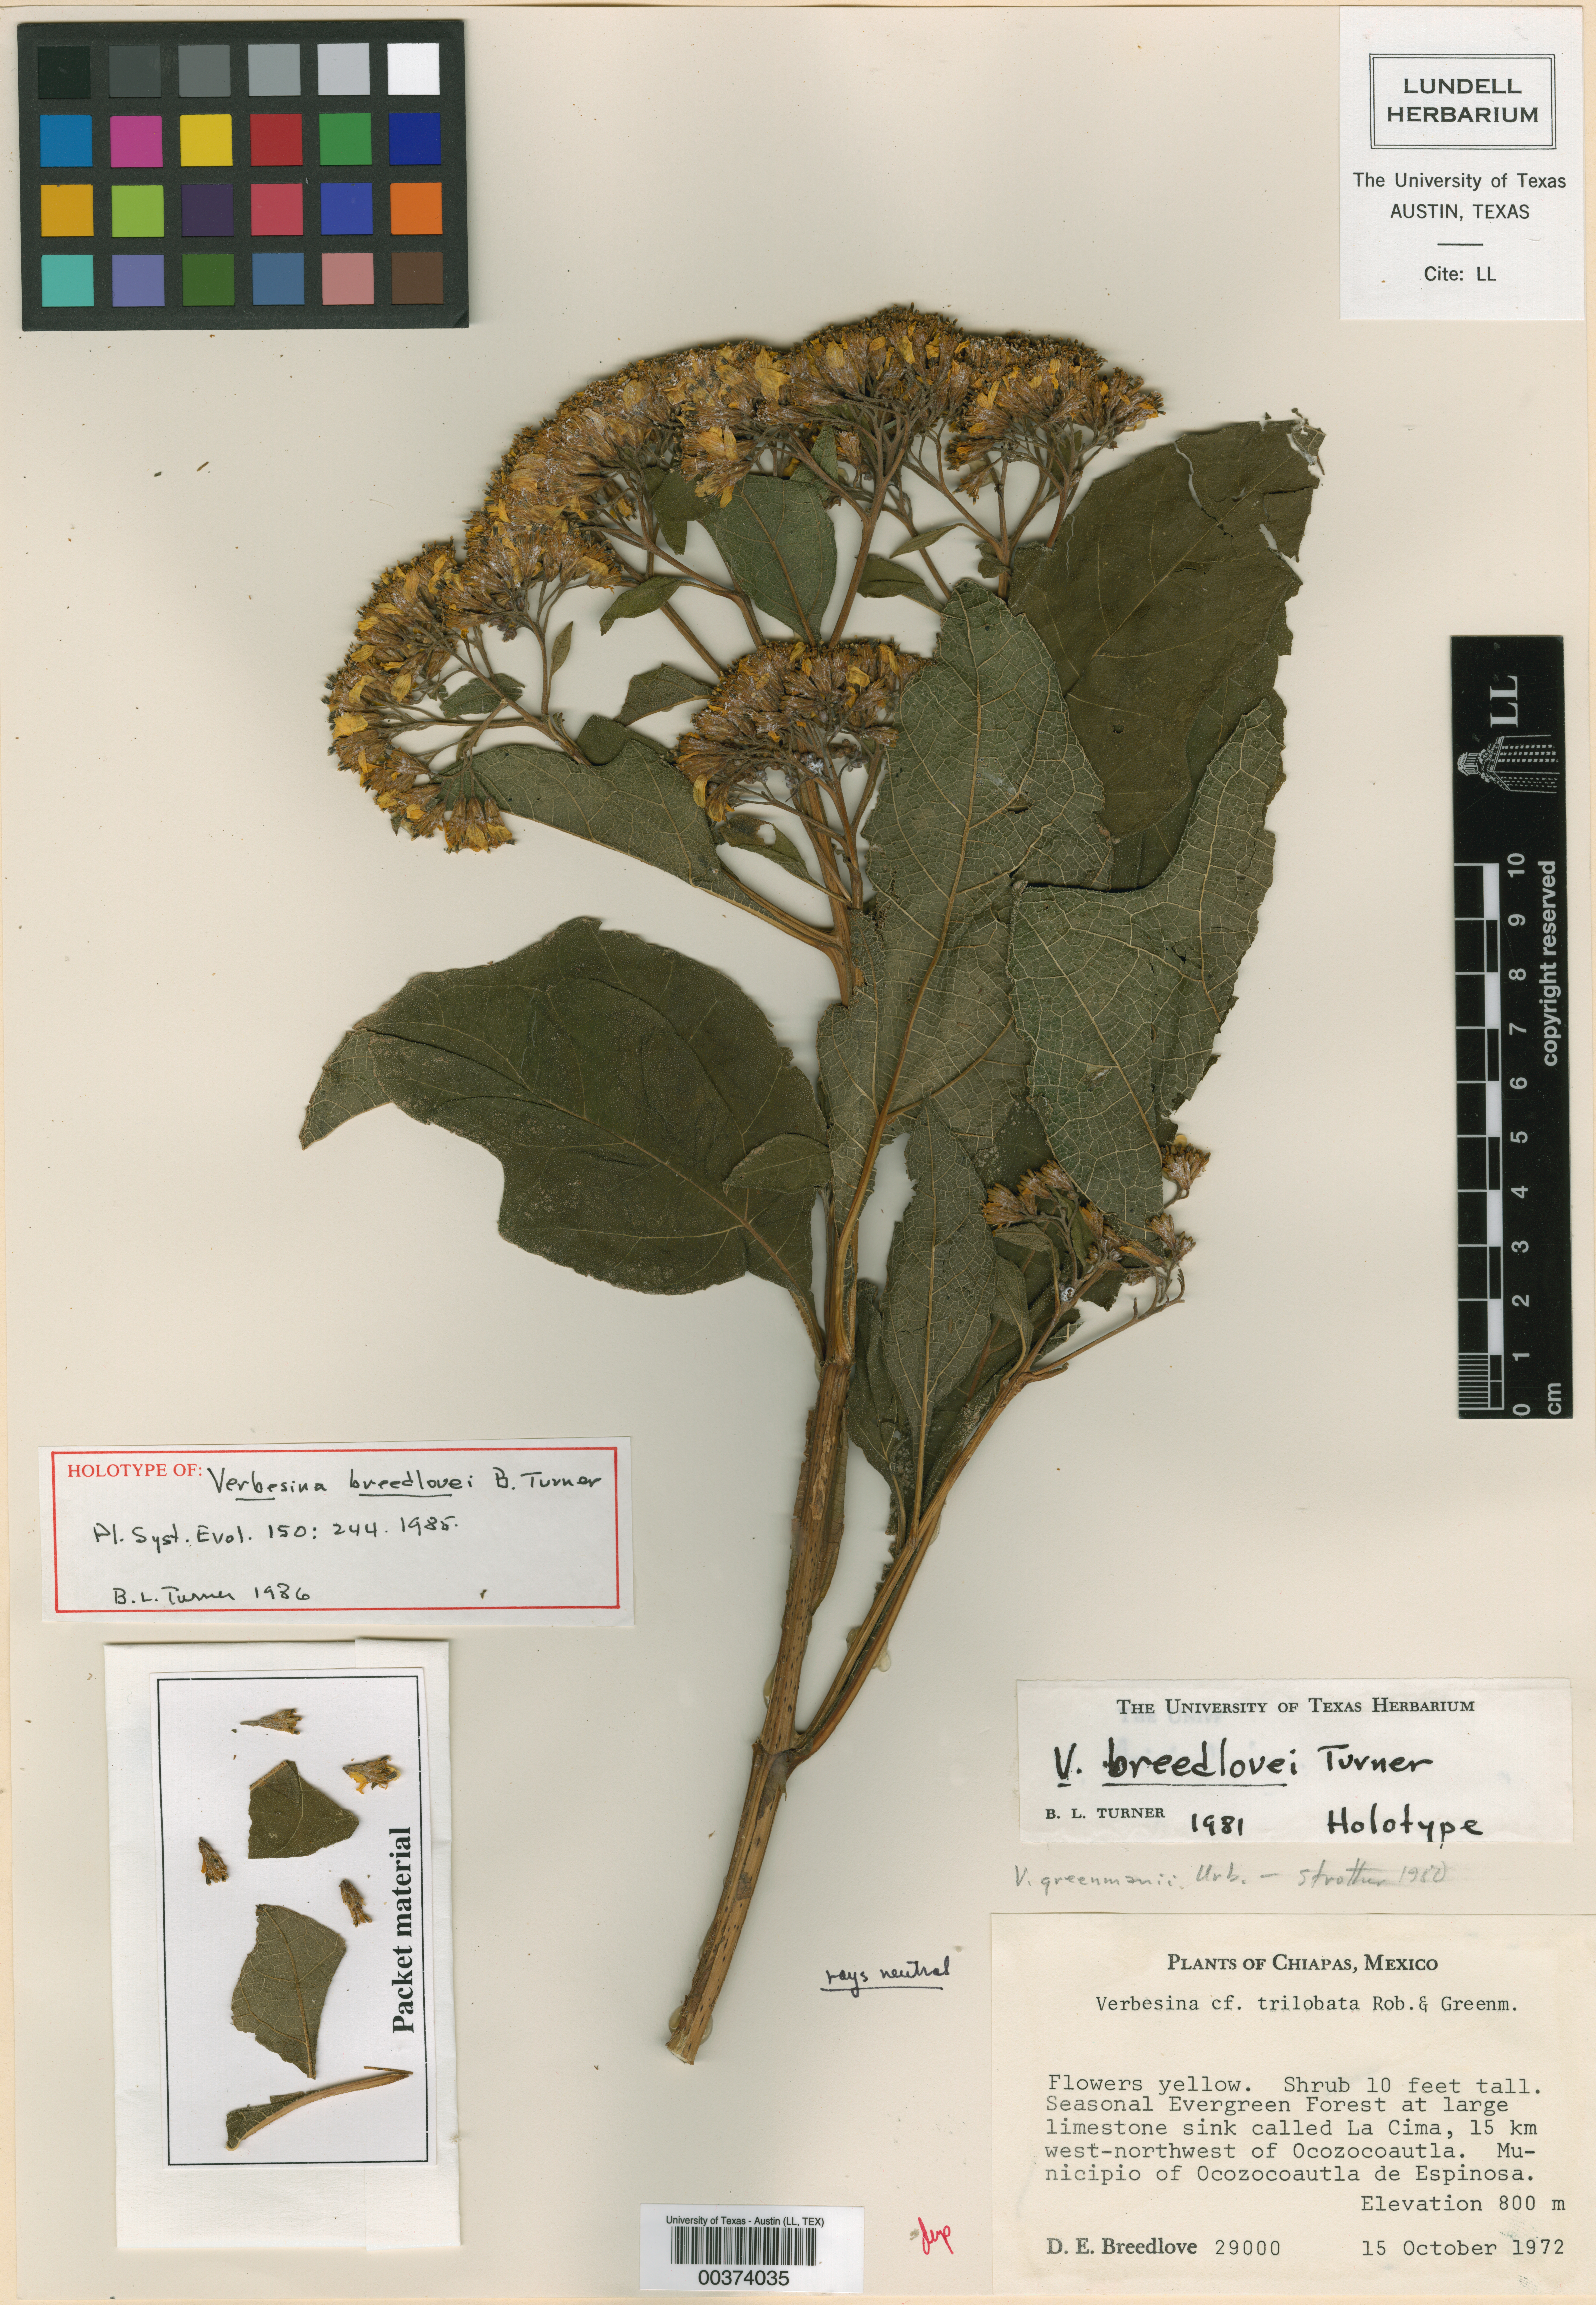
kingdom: Plantae
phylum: Tracheophyta
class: Magnoliopsida
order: Asterales
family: Asteraceae
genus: Verbesina
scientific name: Verbesina breedlovei
